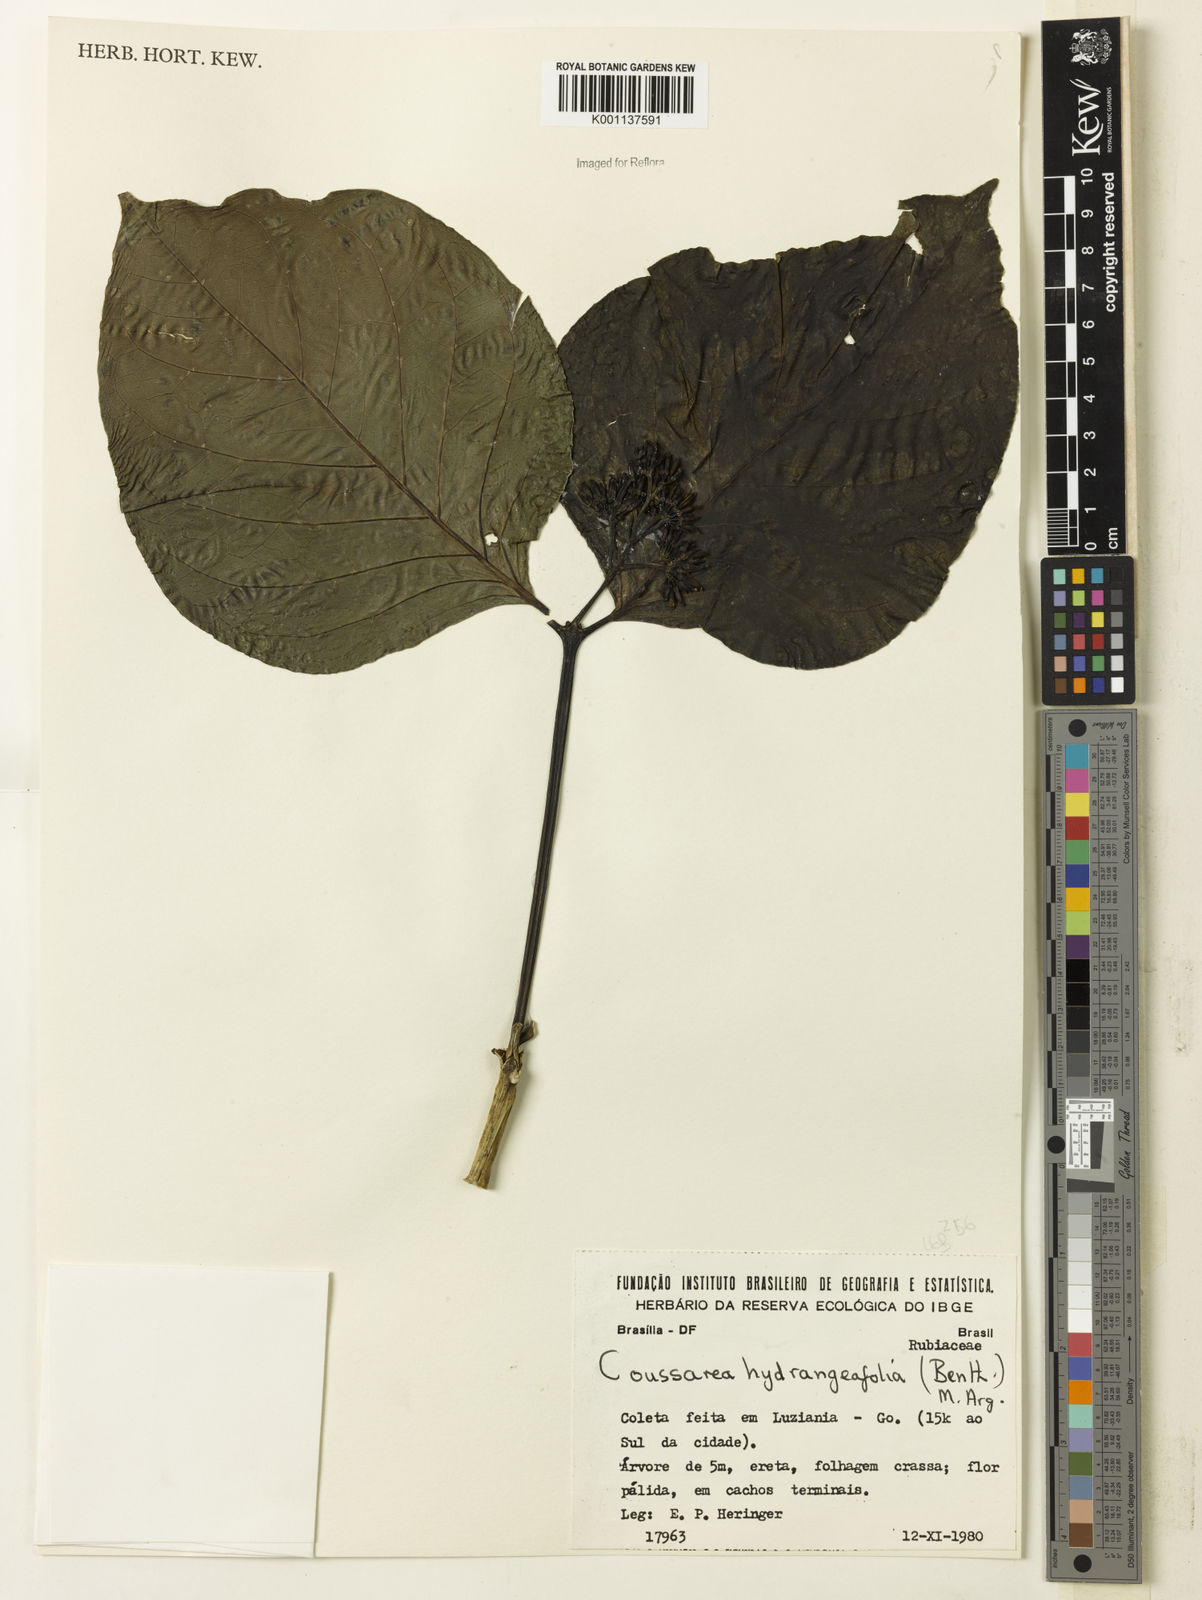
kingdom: Plantae
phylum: Tracheophyta
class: Magnoliopsida
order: Gentianales
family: Rubiaceae
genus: Coussarea
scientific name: Coussarea
